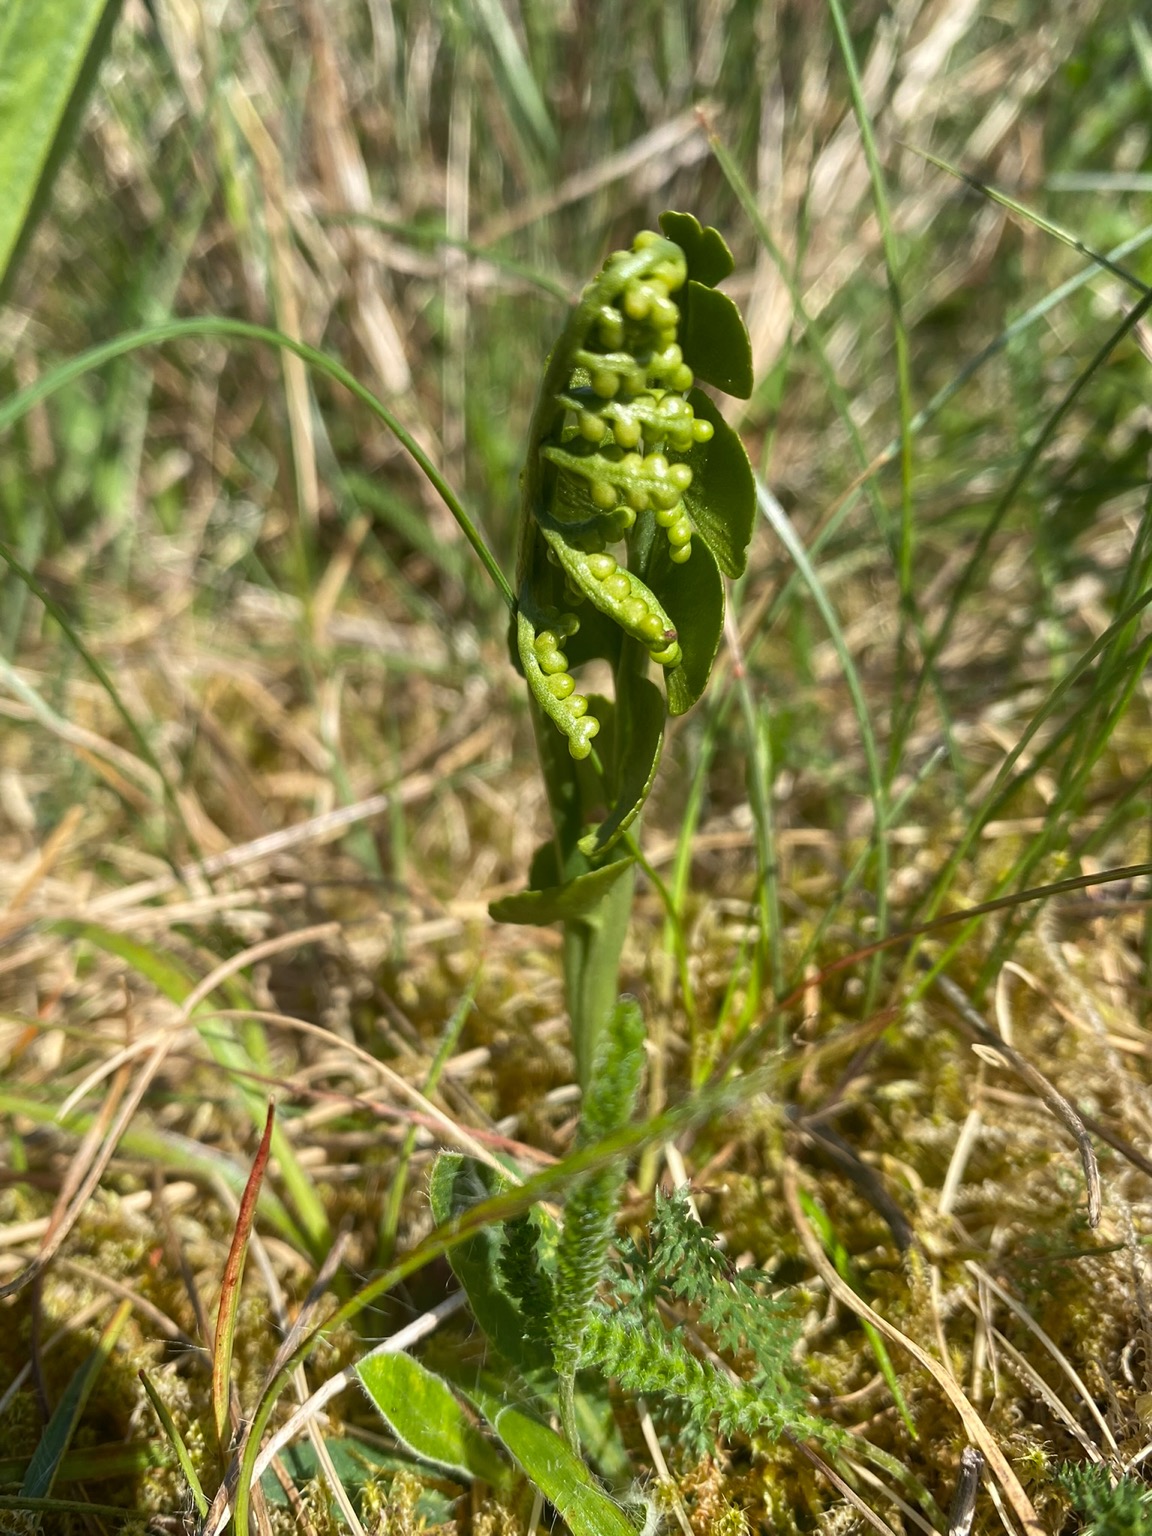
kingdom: Plantae
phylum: Tracheophyta
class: Polypodiopsida
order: Ophioglossales
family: Ophioglossaceae
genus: Botrychium
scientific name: Botrychium lunaria
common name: Almindelig månerude
